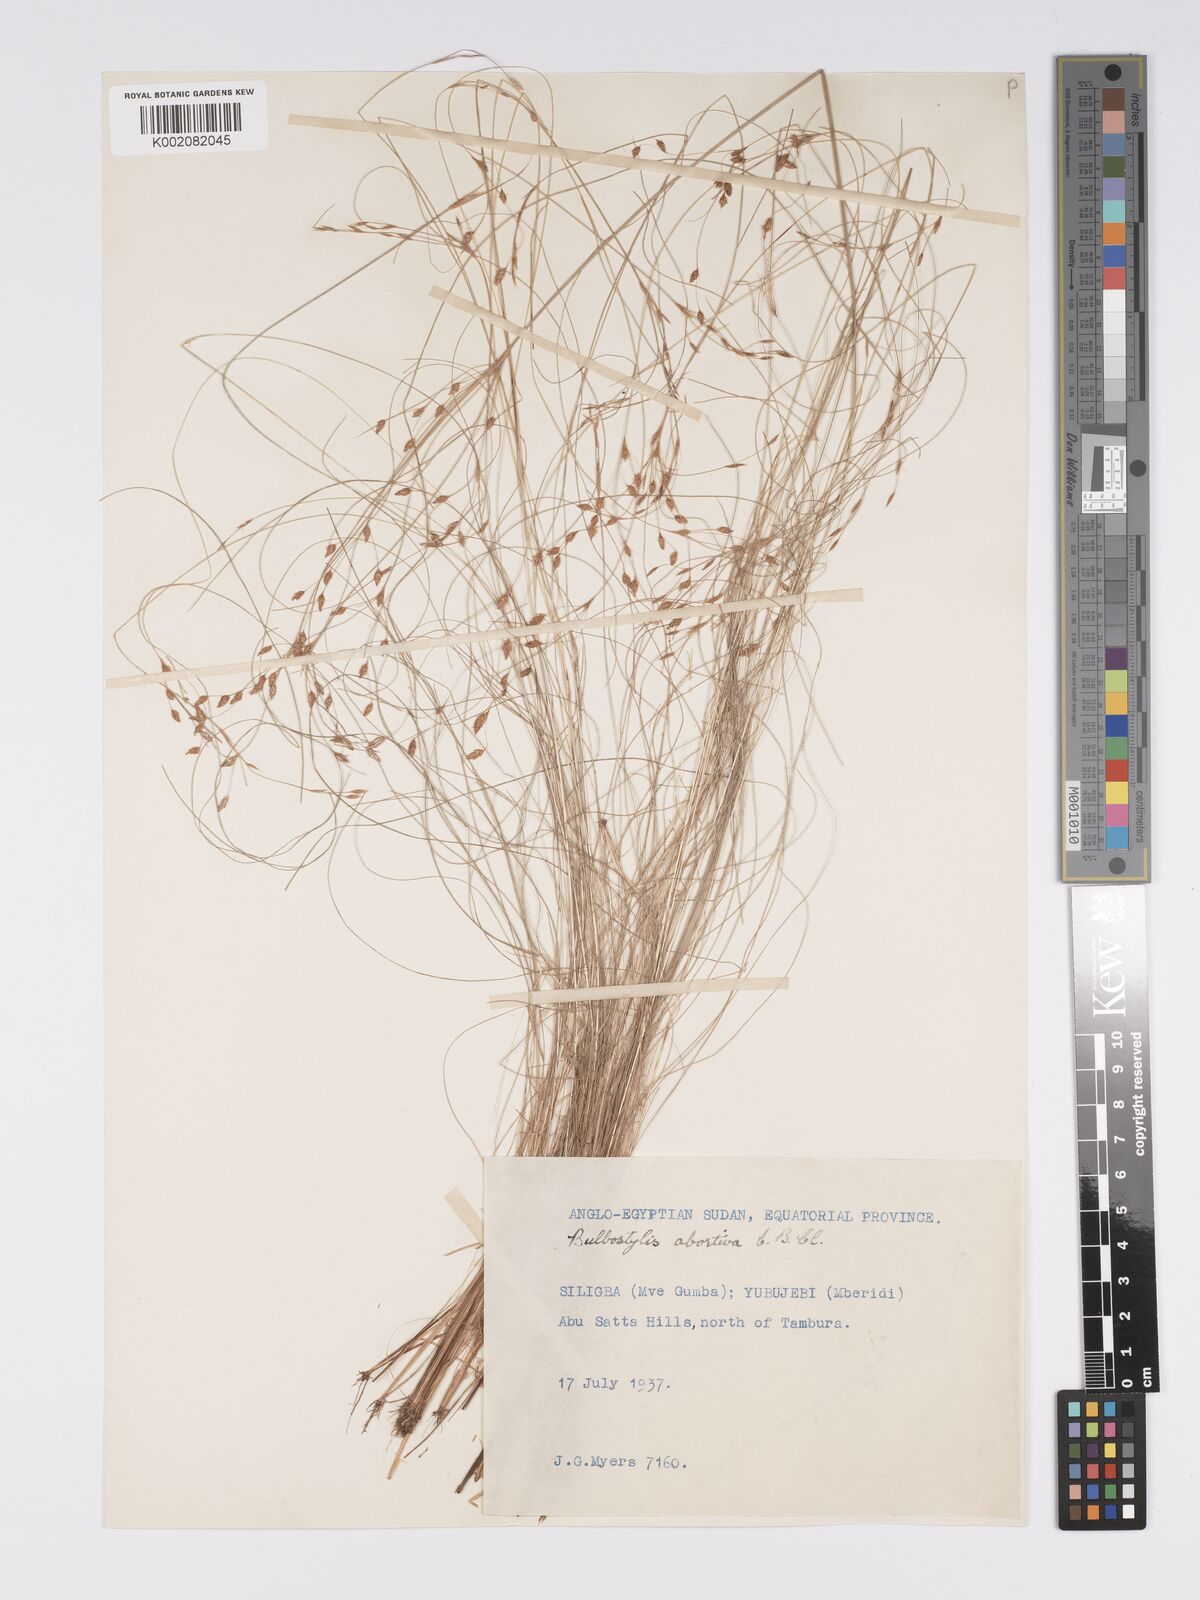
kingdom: Plantae
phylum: Tracheophyta
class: Liliopsida
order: Poales
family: Cyperaceae
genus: Bulbostylis
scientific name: Bulbostylis abortiva
